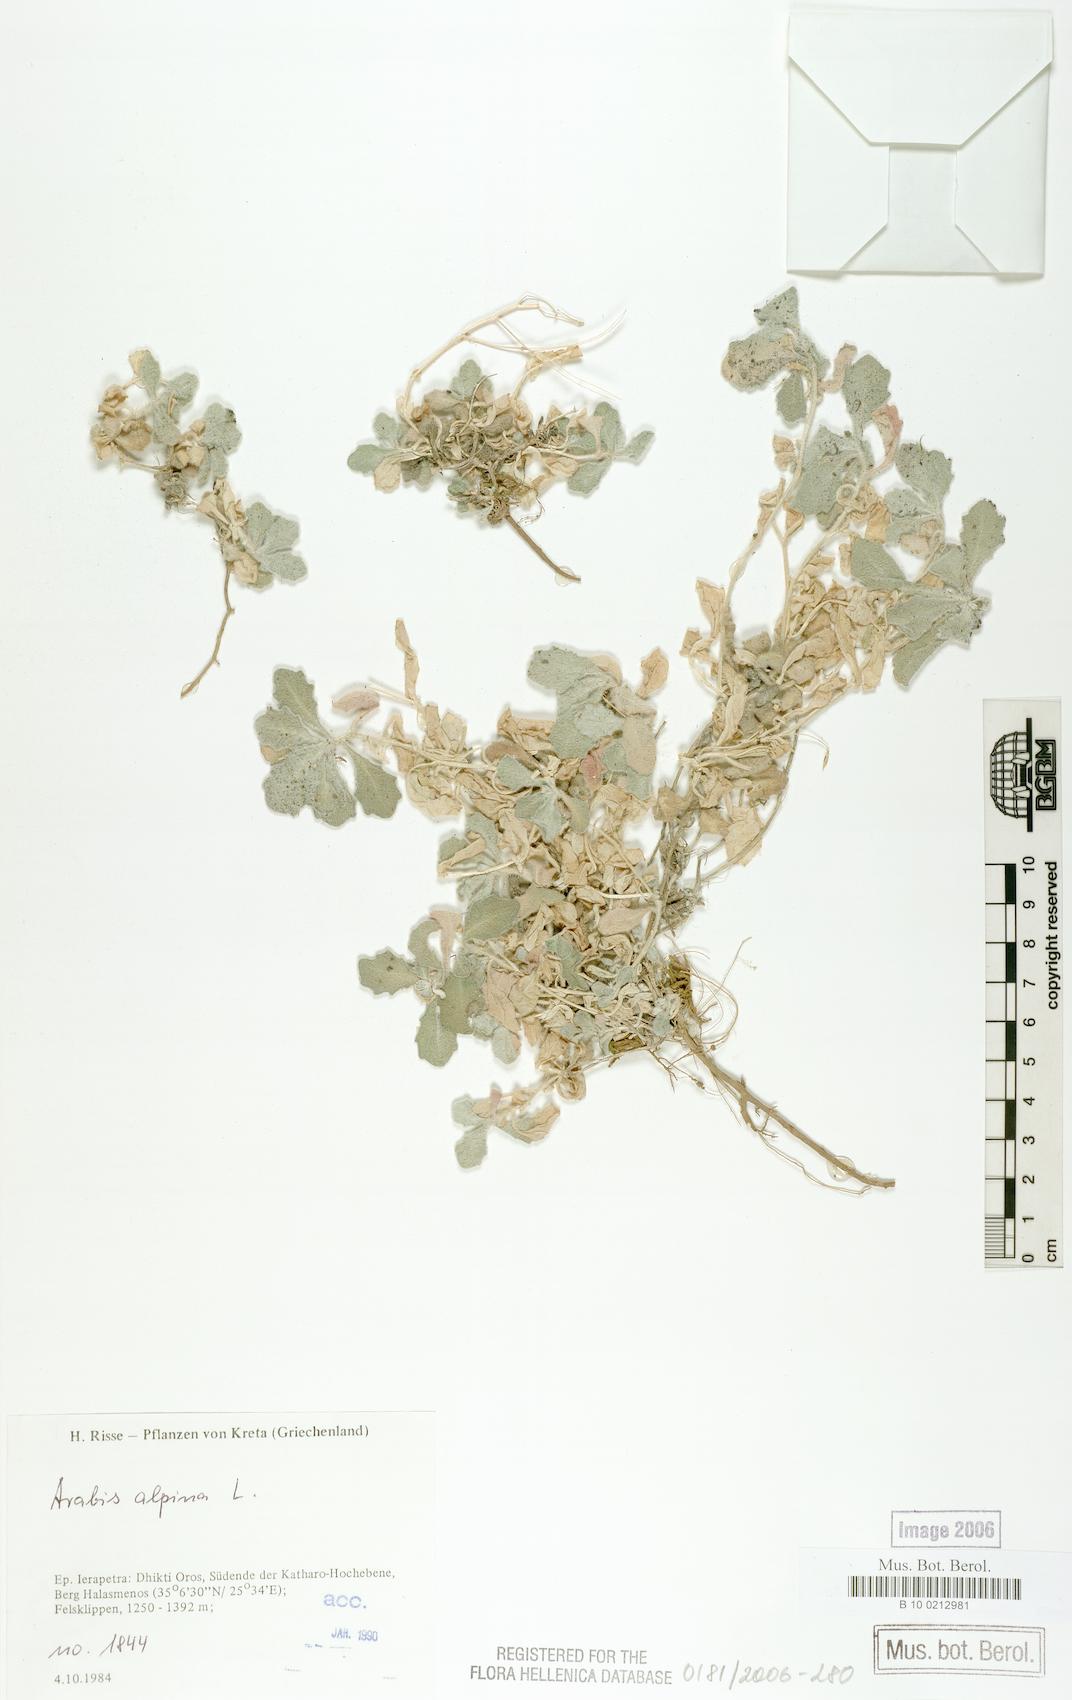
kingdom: Plantae
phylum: Tracheophyta
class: Magnoliopsida
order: Brassicales
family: Brassicaceae
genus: Arabis
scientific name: Arabis alpina
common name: Alpine rock-cress
